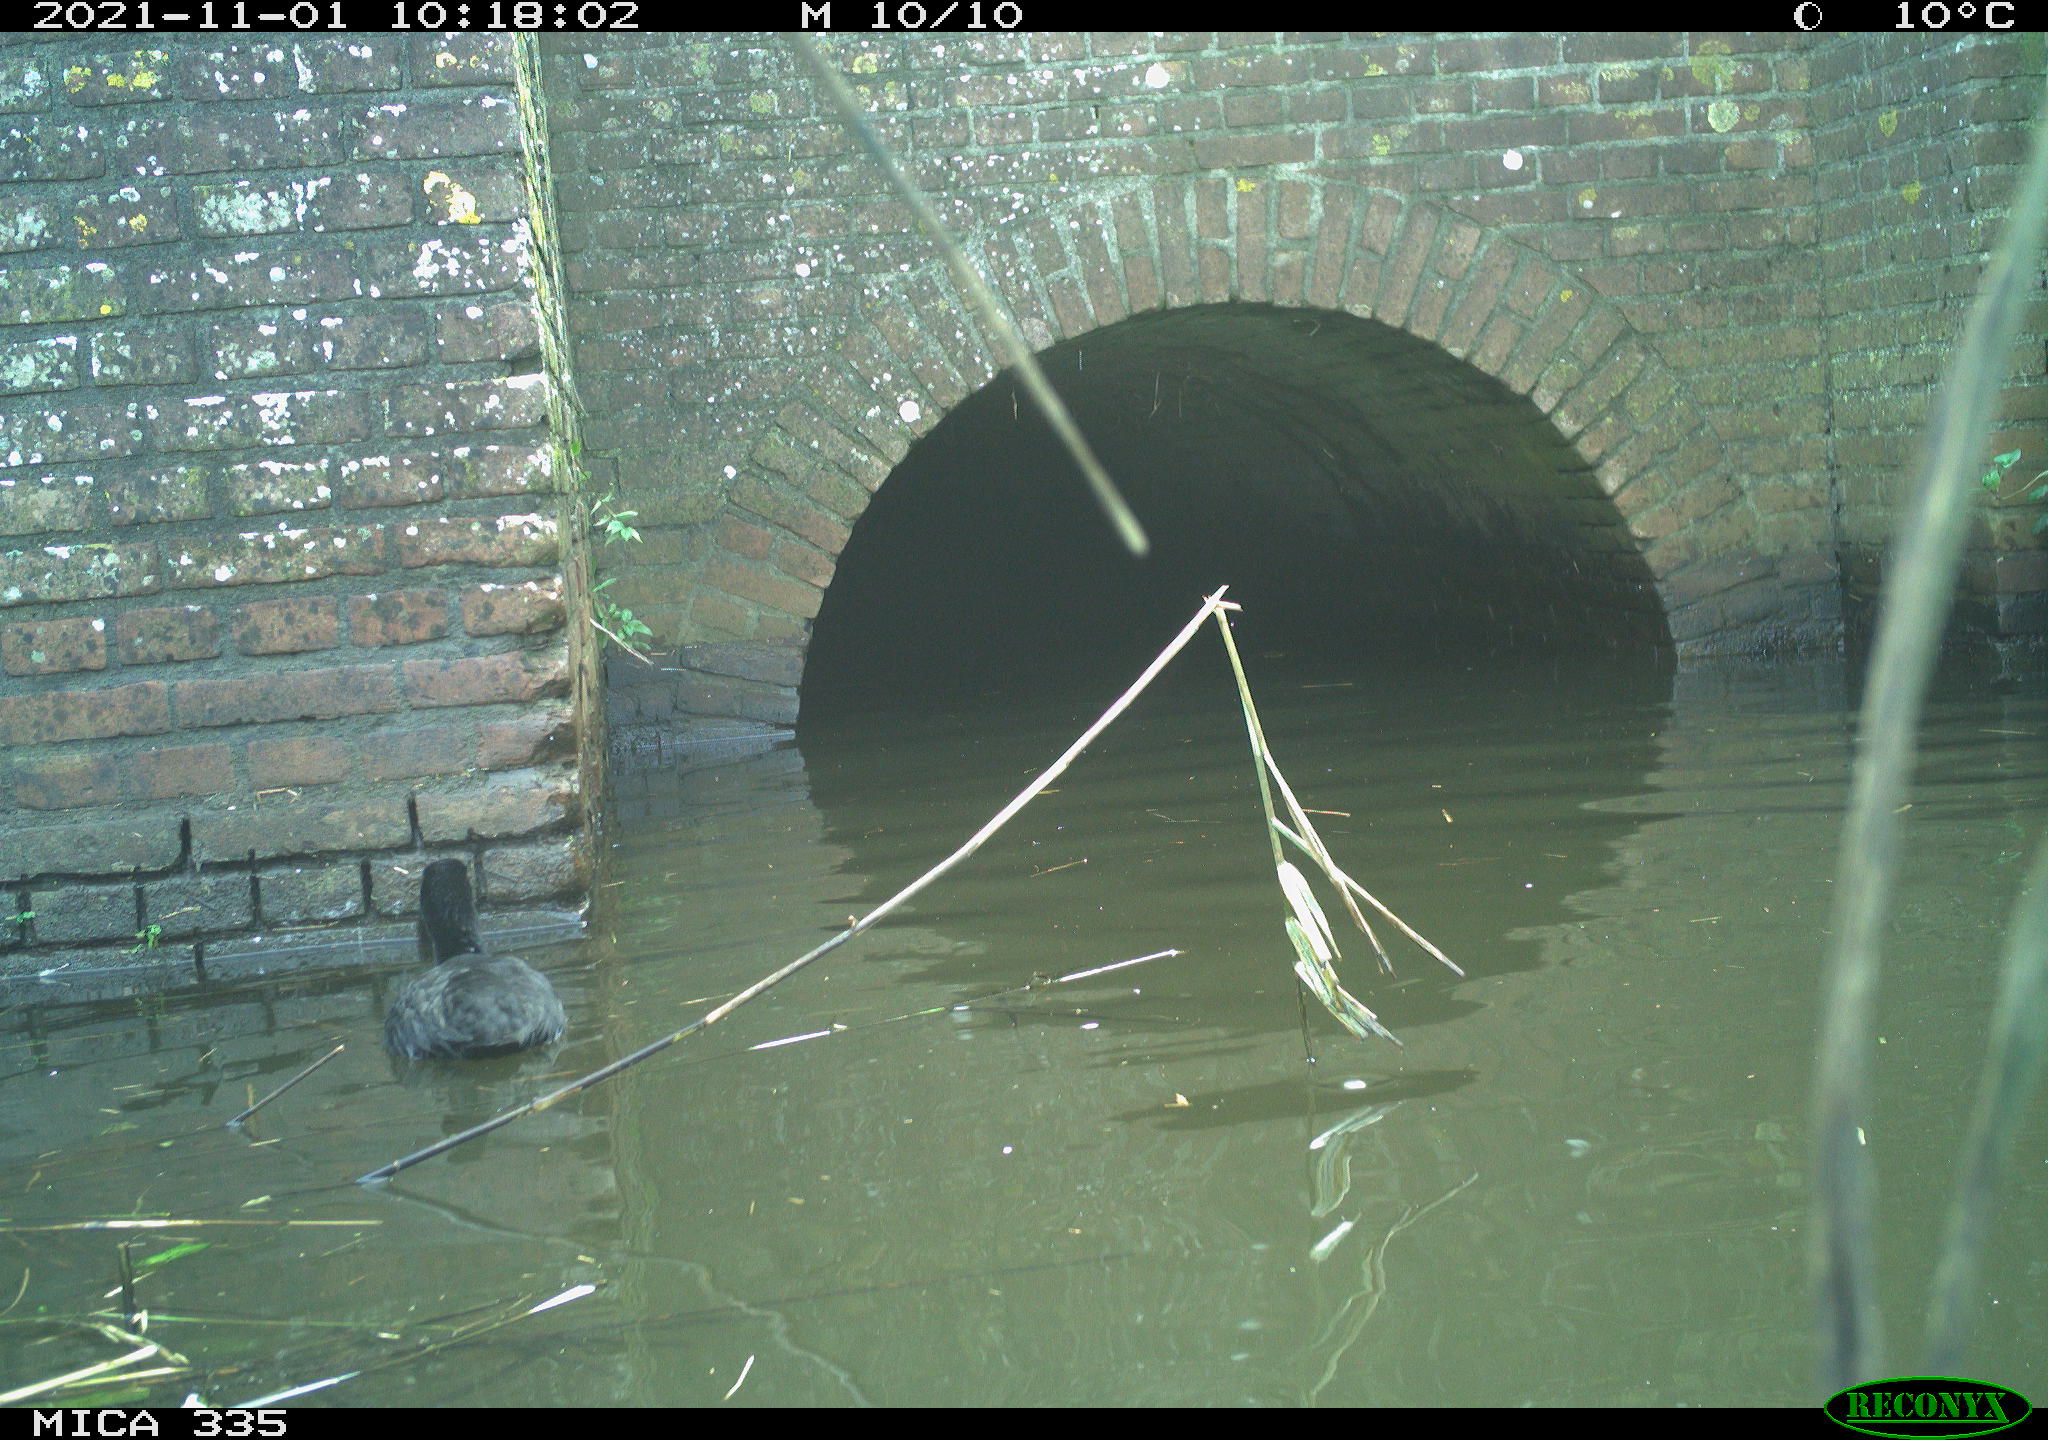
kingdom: Animalia
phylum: Chordata
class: Aves
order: Gruiformes
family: Rallidae
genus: Fulica
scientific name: Fulica atra
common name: Eurasian coot
